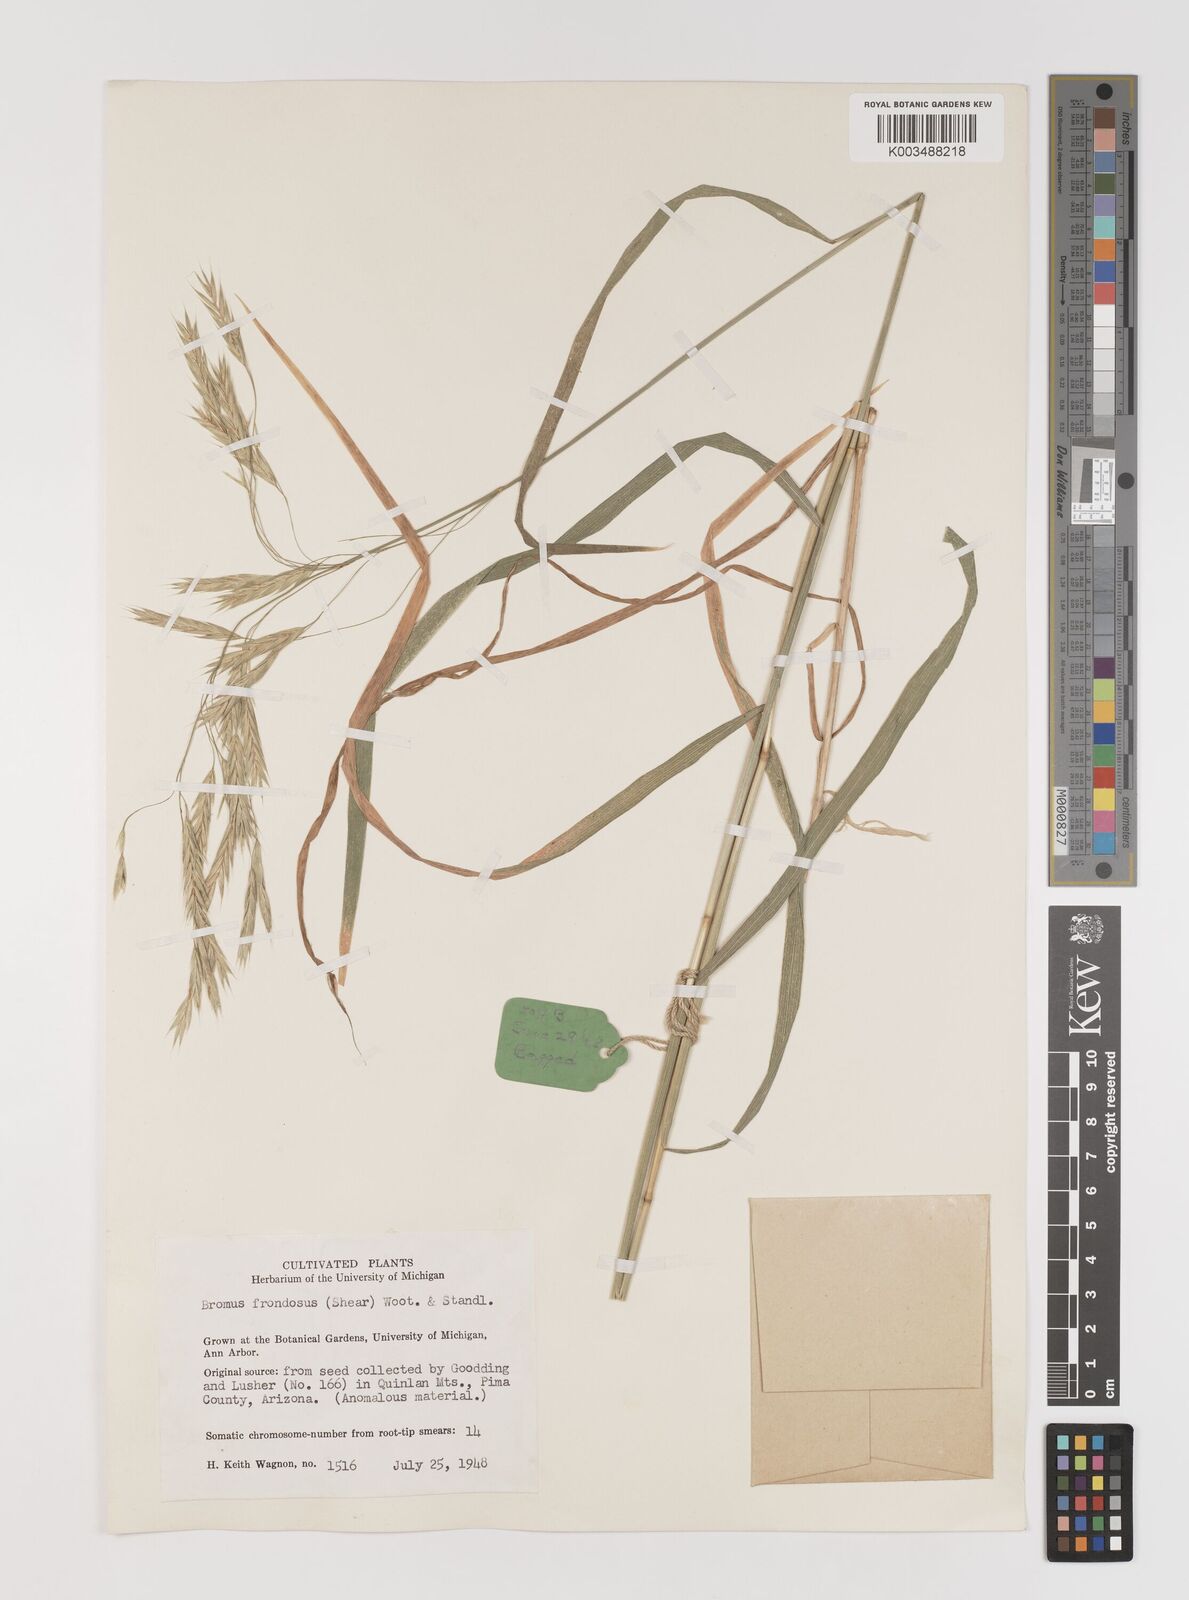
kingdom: Plantae
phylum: Tracheophyta
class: Liliopsida
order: Poales
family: Poaceae
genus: Bromus
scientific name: Bromus frondosus
